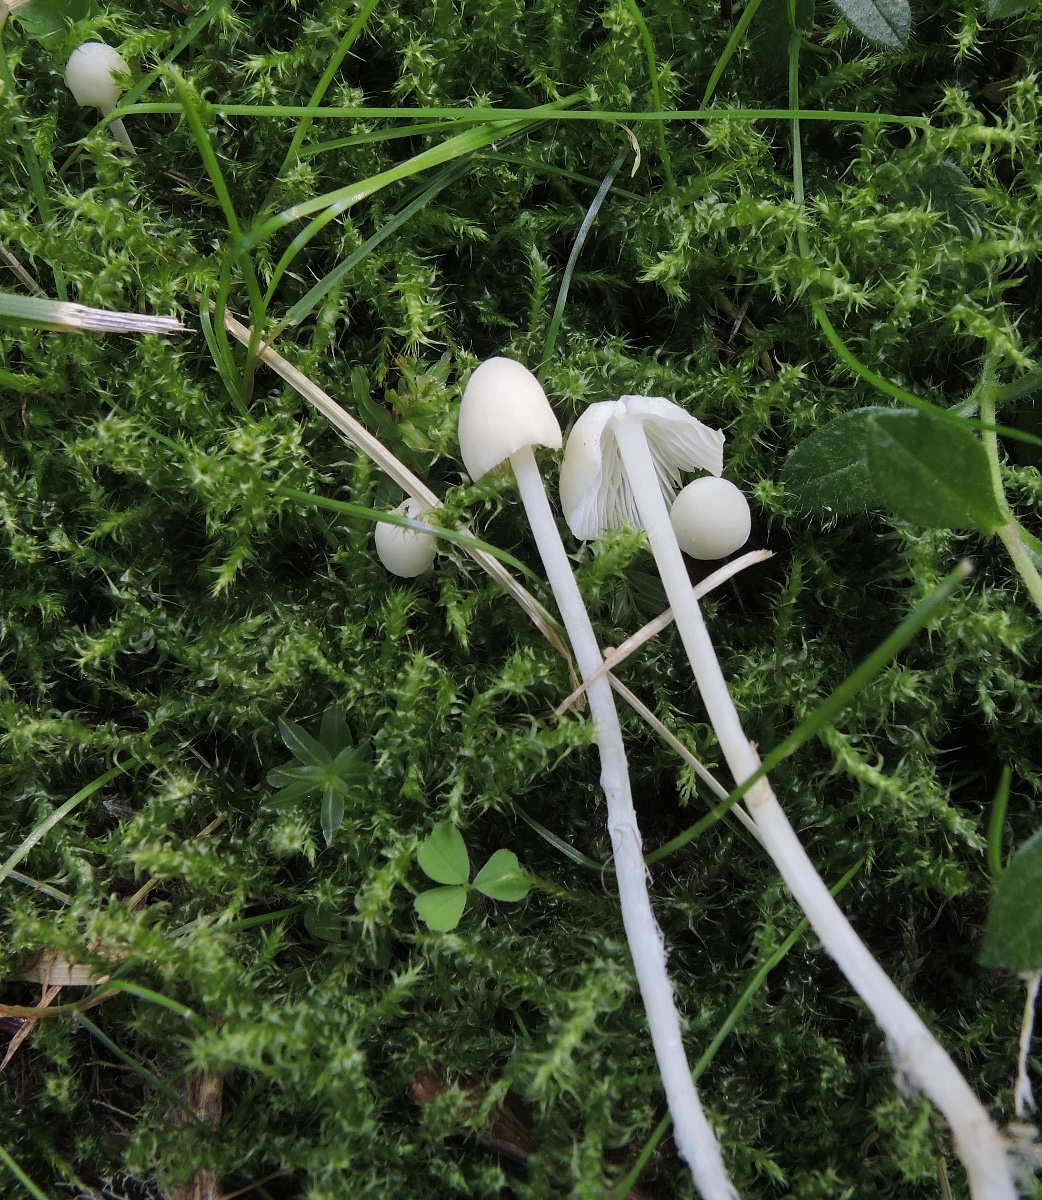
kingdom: Fungi
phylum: Basidiomycota
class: Agaricomycetes
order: Agaricales
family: Mycenaceae
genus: Hemimycena
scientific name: Hemimycena cucullata
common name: tætbladet huesvamp
